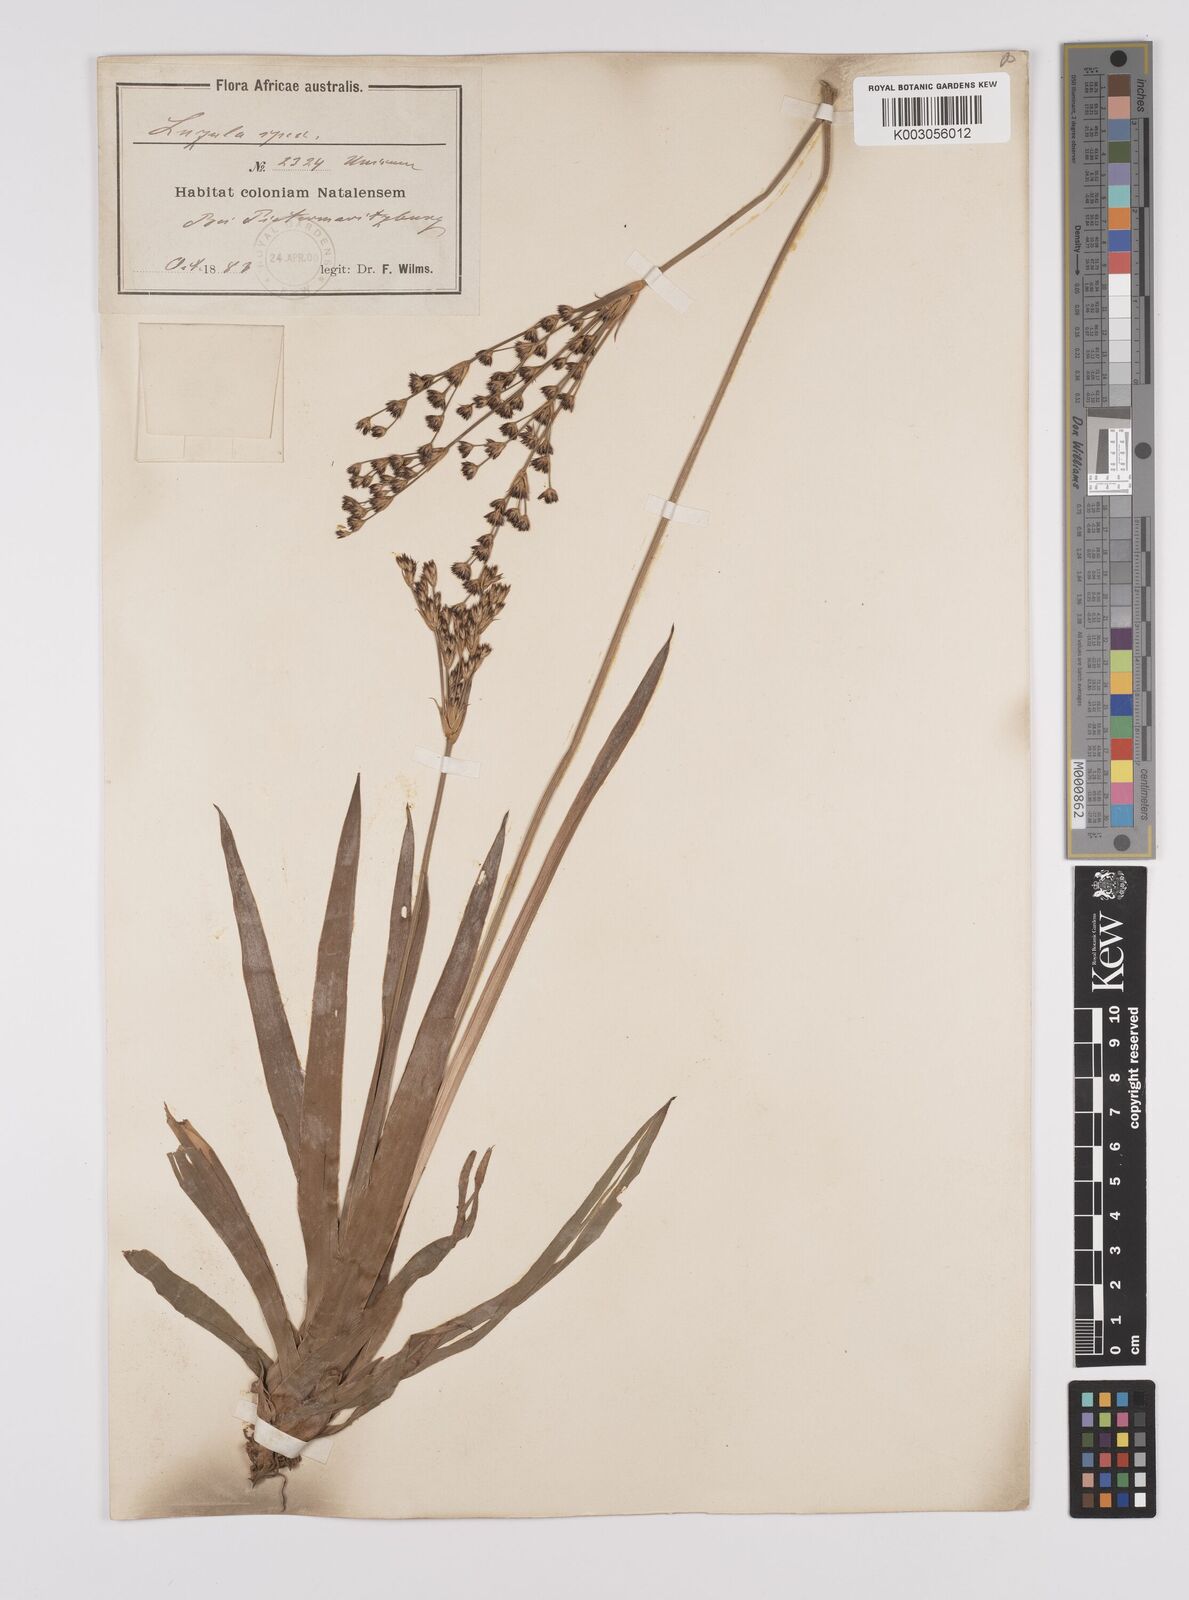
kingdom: Plantae
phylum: Tracheophyta
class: Liliopsida
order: Poales
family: Juncaceae
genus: Juncus
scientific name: Juncus lomatophyllus
